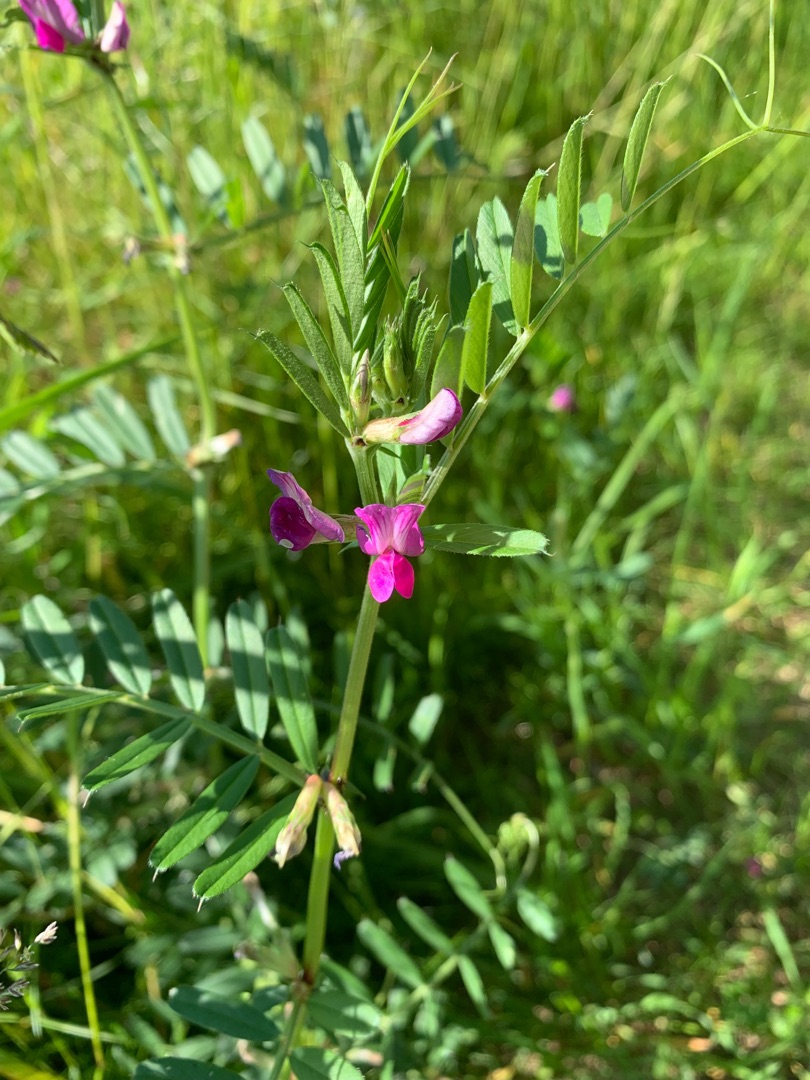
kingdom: Plantae
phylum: Tracheophyta
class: Magnoliopsida
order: Fabales
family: Fabaceae
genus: Vicia
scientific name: Vicia sativa
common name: Ager-vikke
